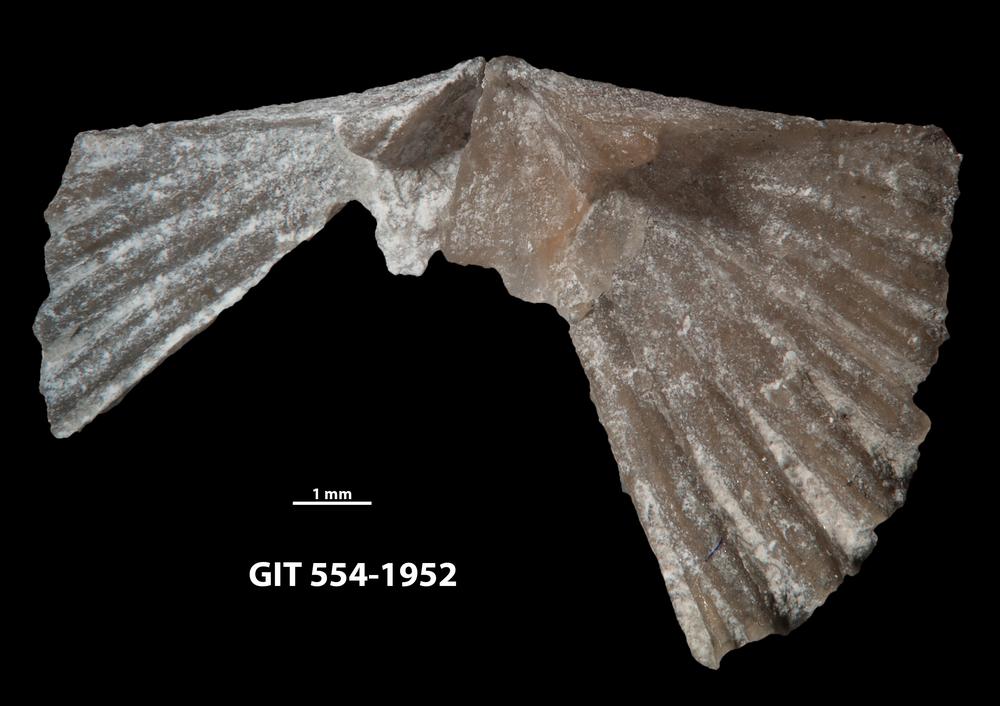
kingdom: Animalia
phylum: Brachiopoda
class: Rhynchonellata
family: Wangyuiidae
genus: Wangyuia
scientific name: Wangyuia
